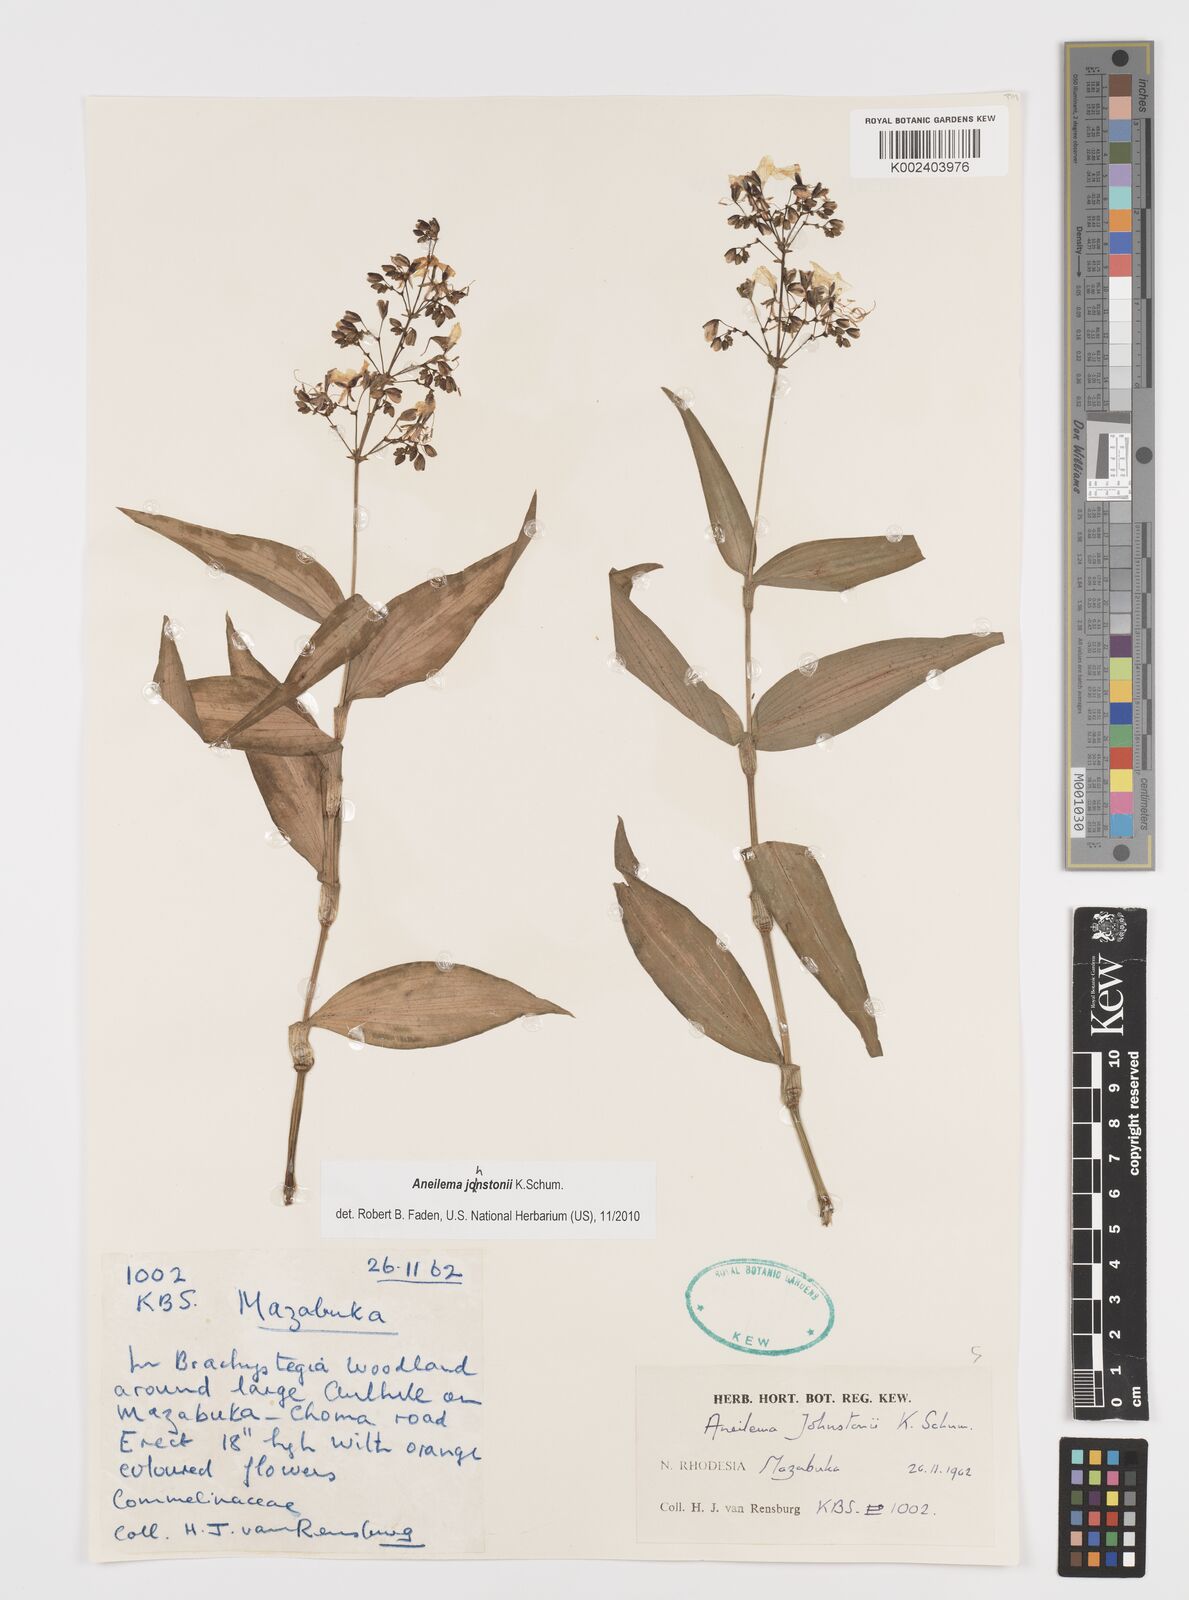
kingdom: Plantae
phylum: Tracheophyta
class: Liliopsida
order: Commelinales
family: Commelinaceae
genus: Aneilema
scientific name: Aneilema johnstonii
